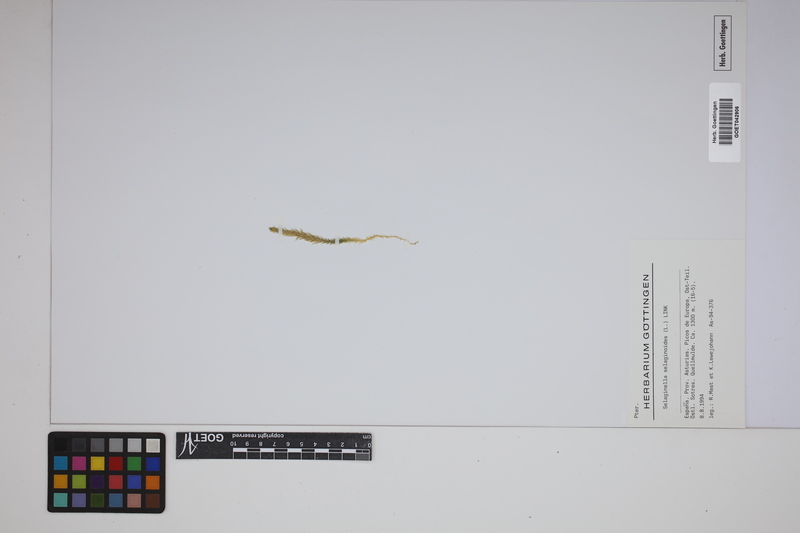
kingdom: Plantae
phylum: Tracheophyta
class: Lycopodiopsida
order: Selaginellales
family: Selaginellaceae
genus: Selaginella
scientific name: Selaginella selaginoides
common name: Prickly mountain-moss
